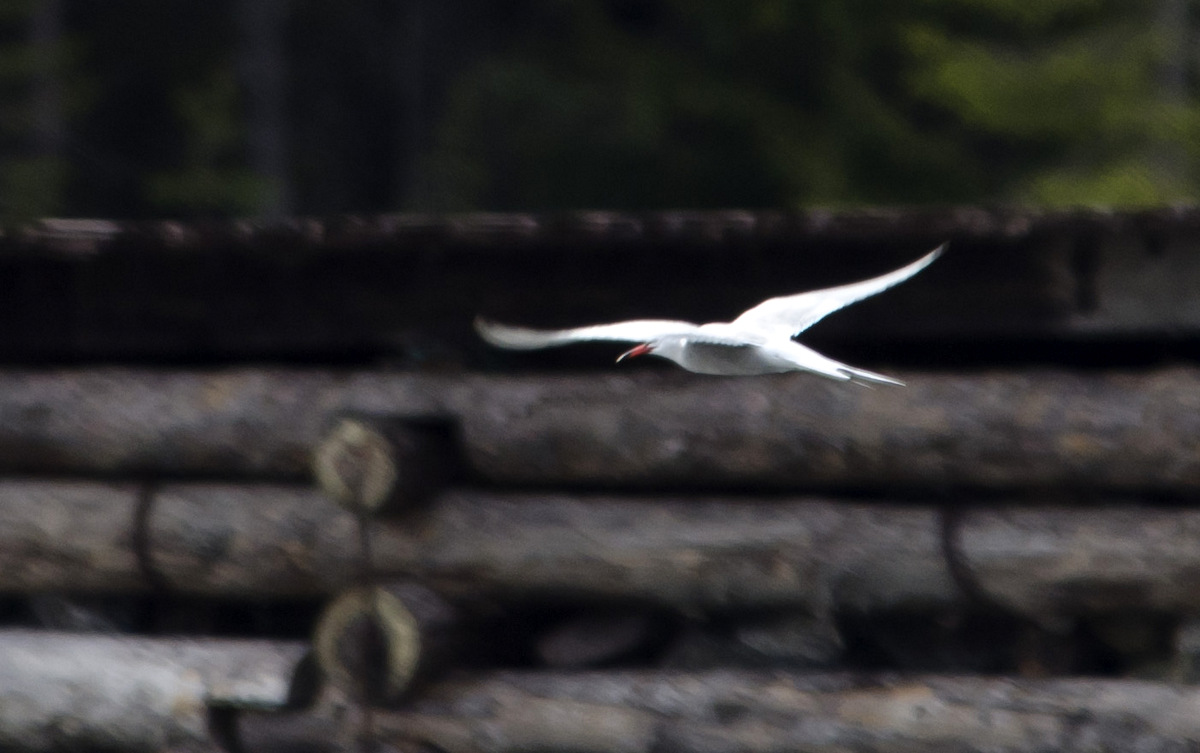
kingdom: Animalia
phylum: Chordata
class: Aves
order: Charadriiformes
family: Laridae
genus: Sterna
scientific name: Sterna hirundo
